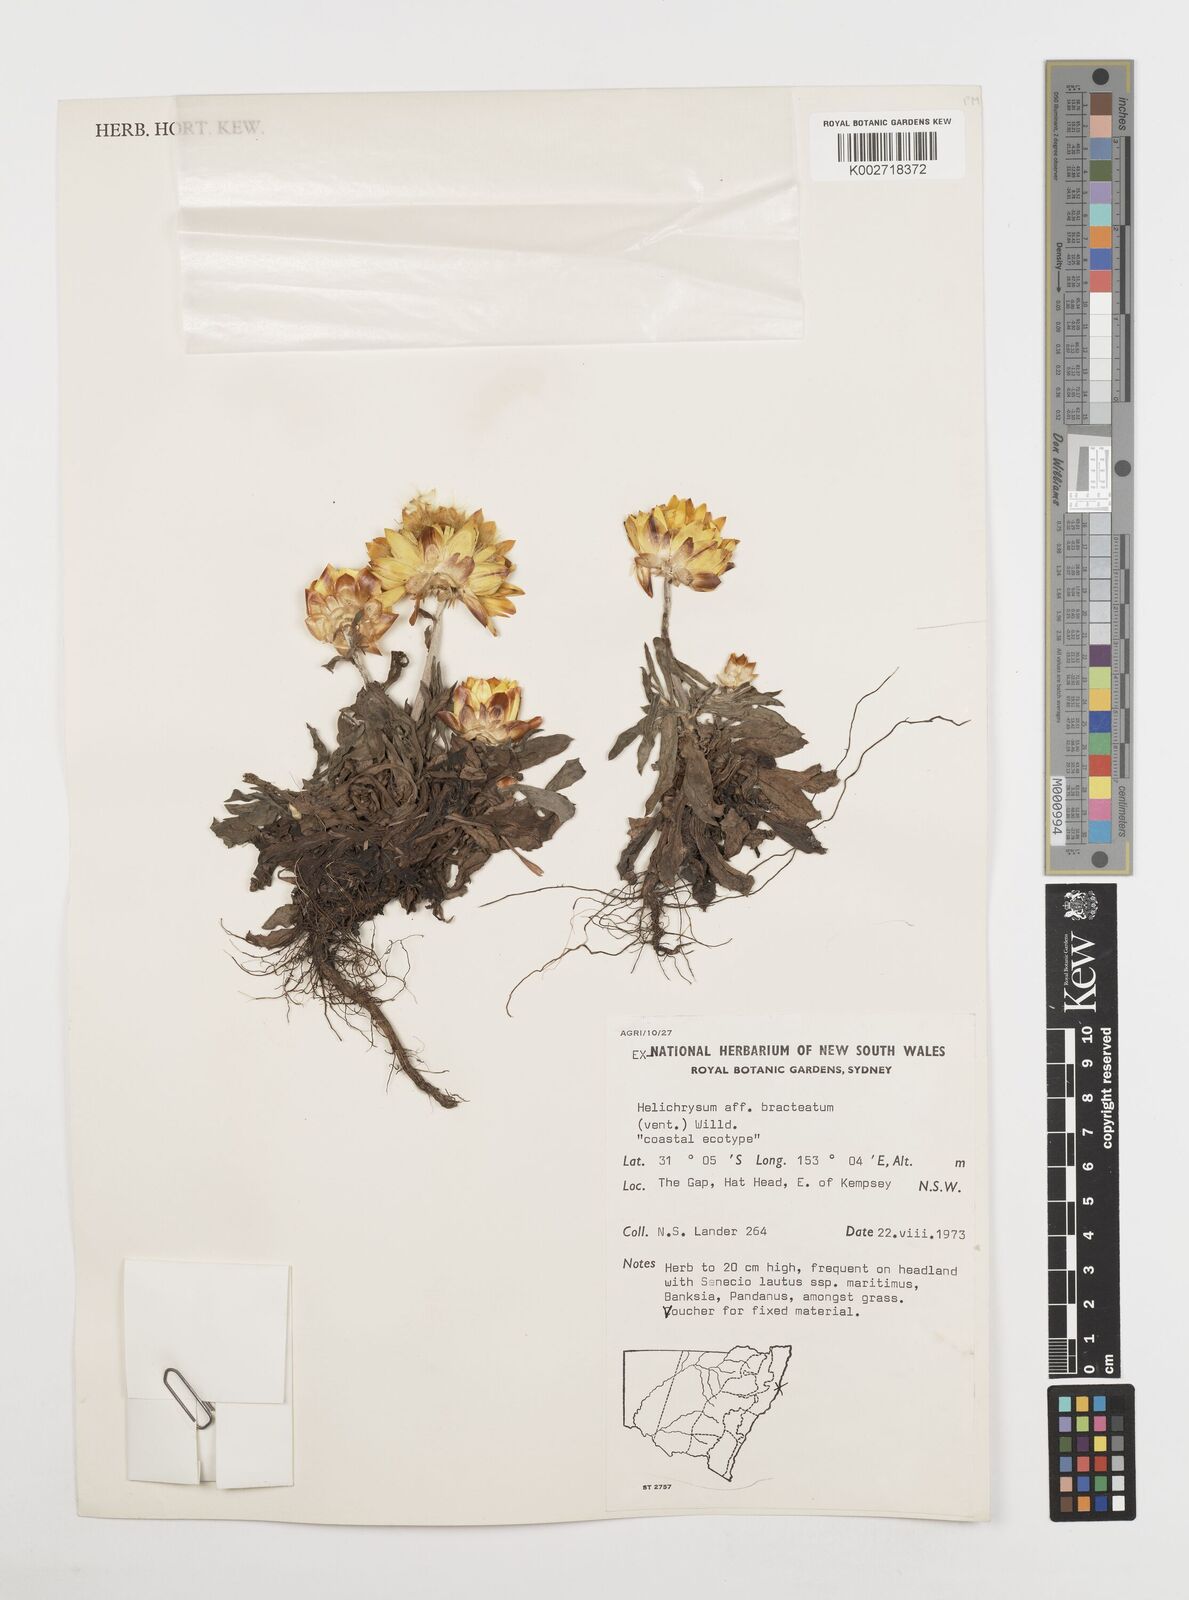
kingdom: Plantae
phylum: Tracheophyta
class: Magnoliopsida
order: Asterales
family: Asteraceae
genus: Xerochrysum
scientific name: Xerochrysum bracteatum
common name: Bracted strawflower
